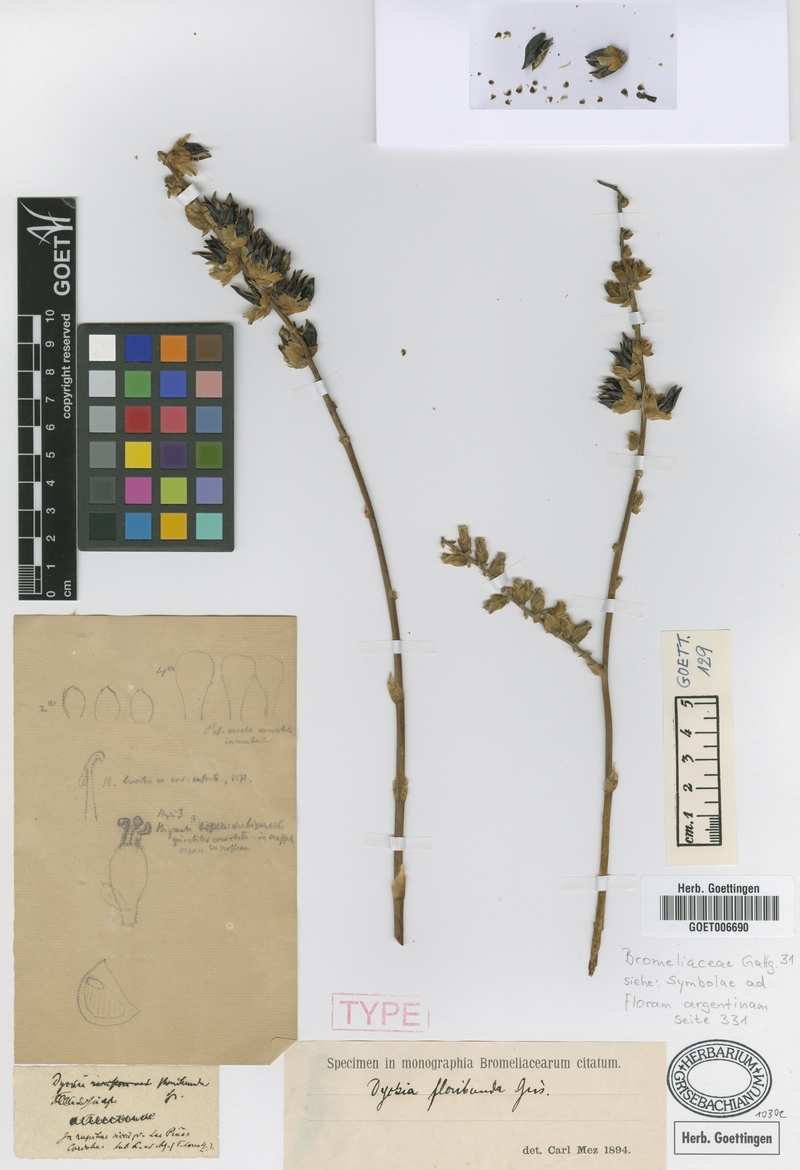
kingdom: Plantae
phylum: Tracheophyta
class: Liliopsida
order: Poales
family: Bromeliaceae
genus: Dyckia
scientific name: Dyckia floribunda
